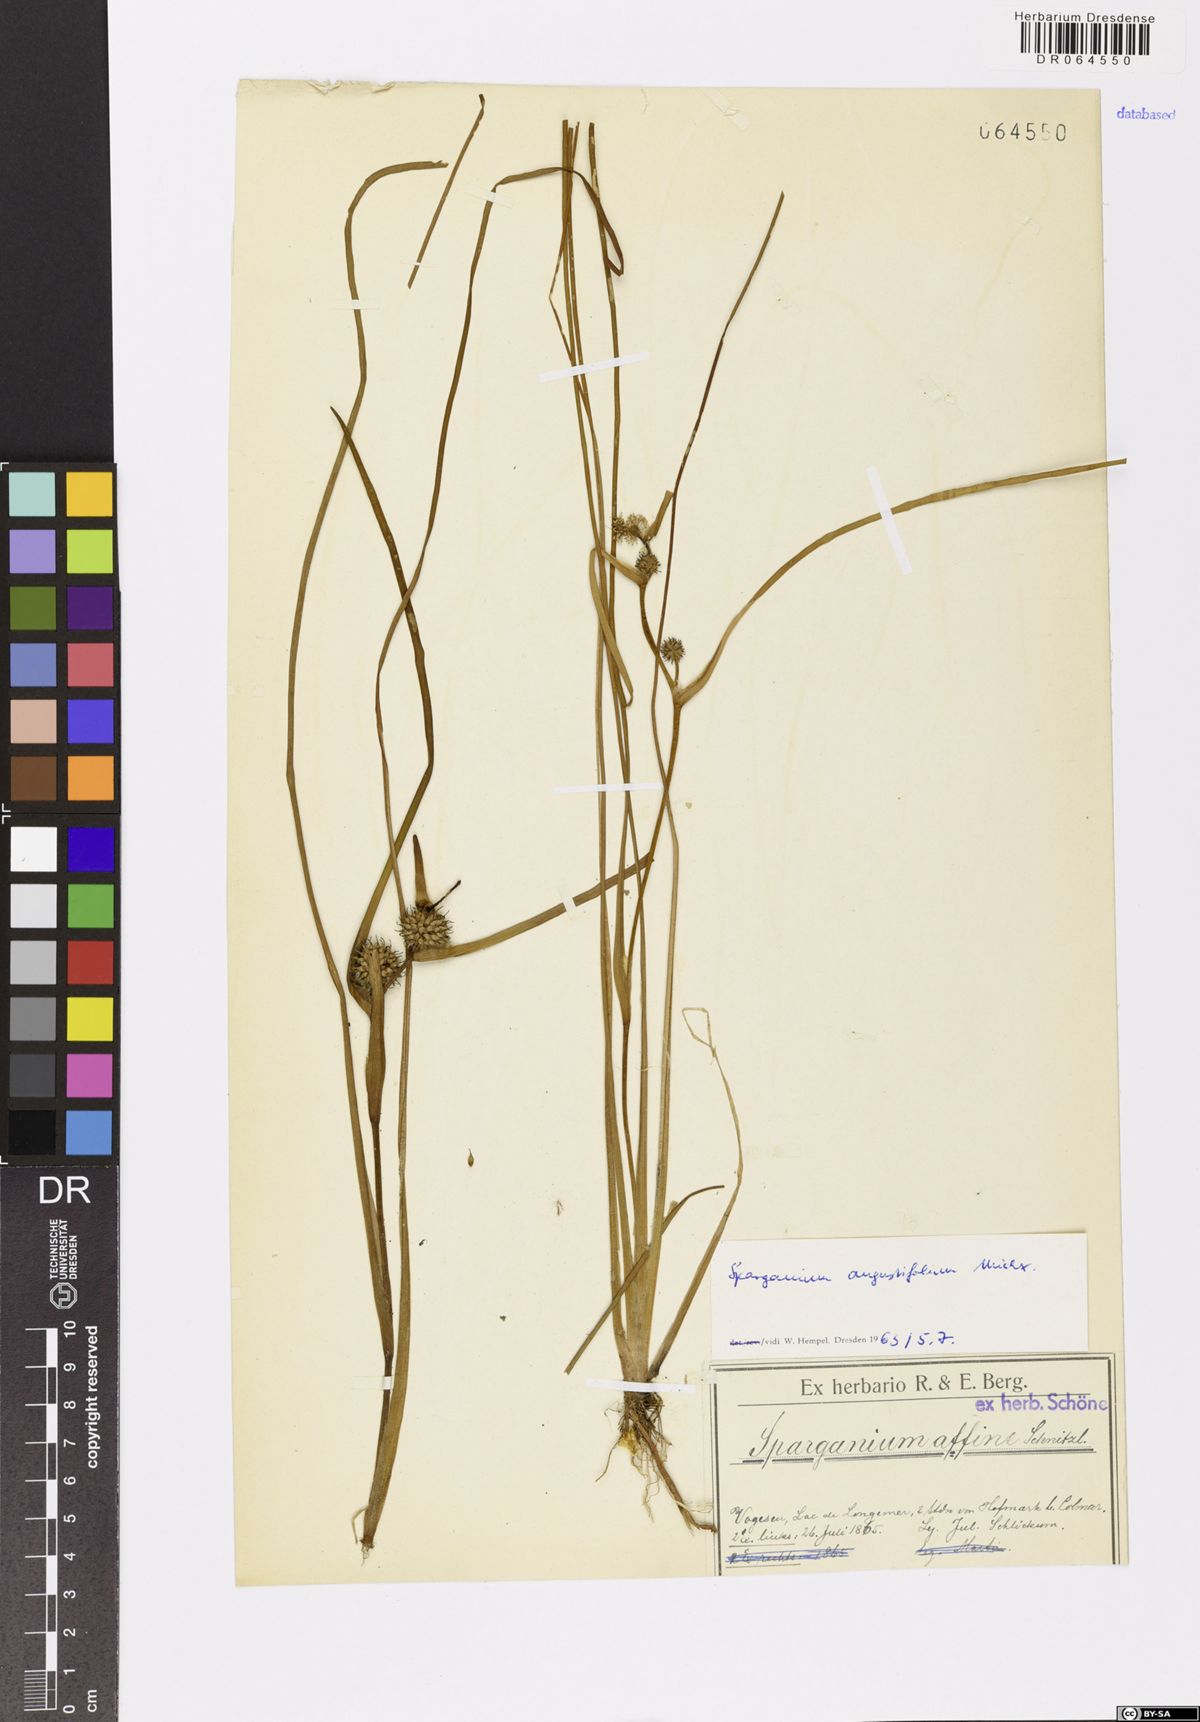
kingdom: Plantae
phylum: Tracheophyta
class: Liliopsida
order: Poales
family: Typhaceae
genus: Sparganium
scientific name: Sparganium angustifolium
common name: Floating bur-reed
